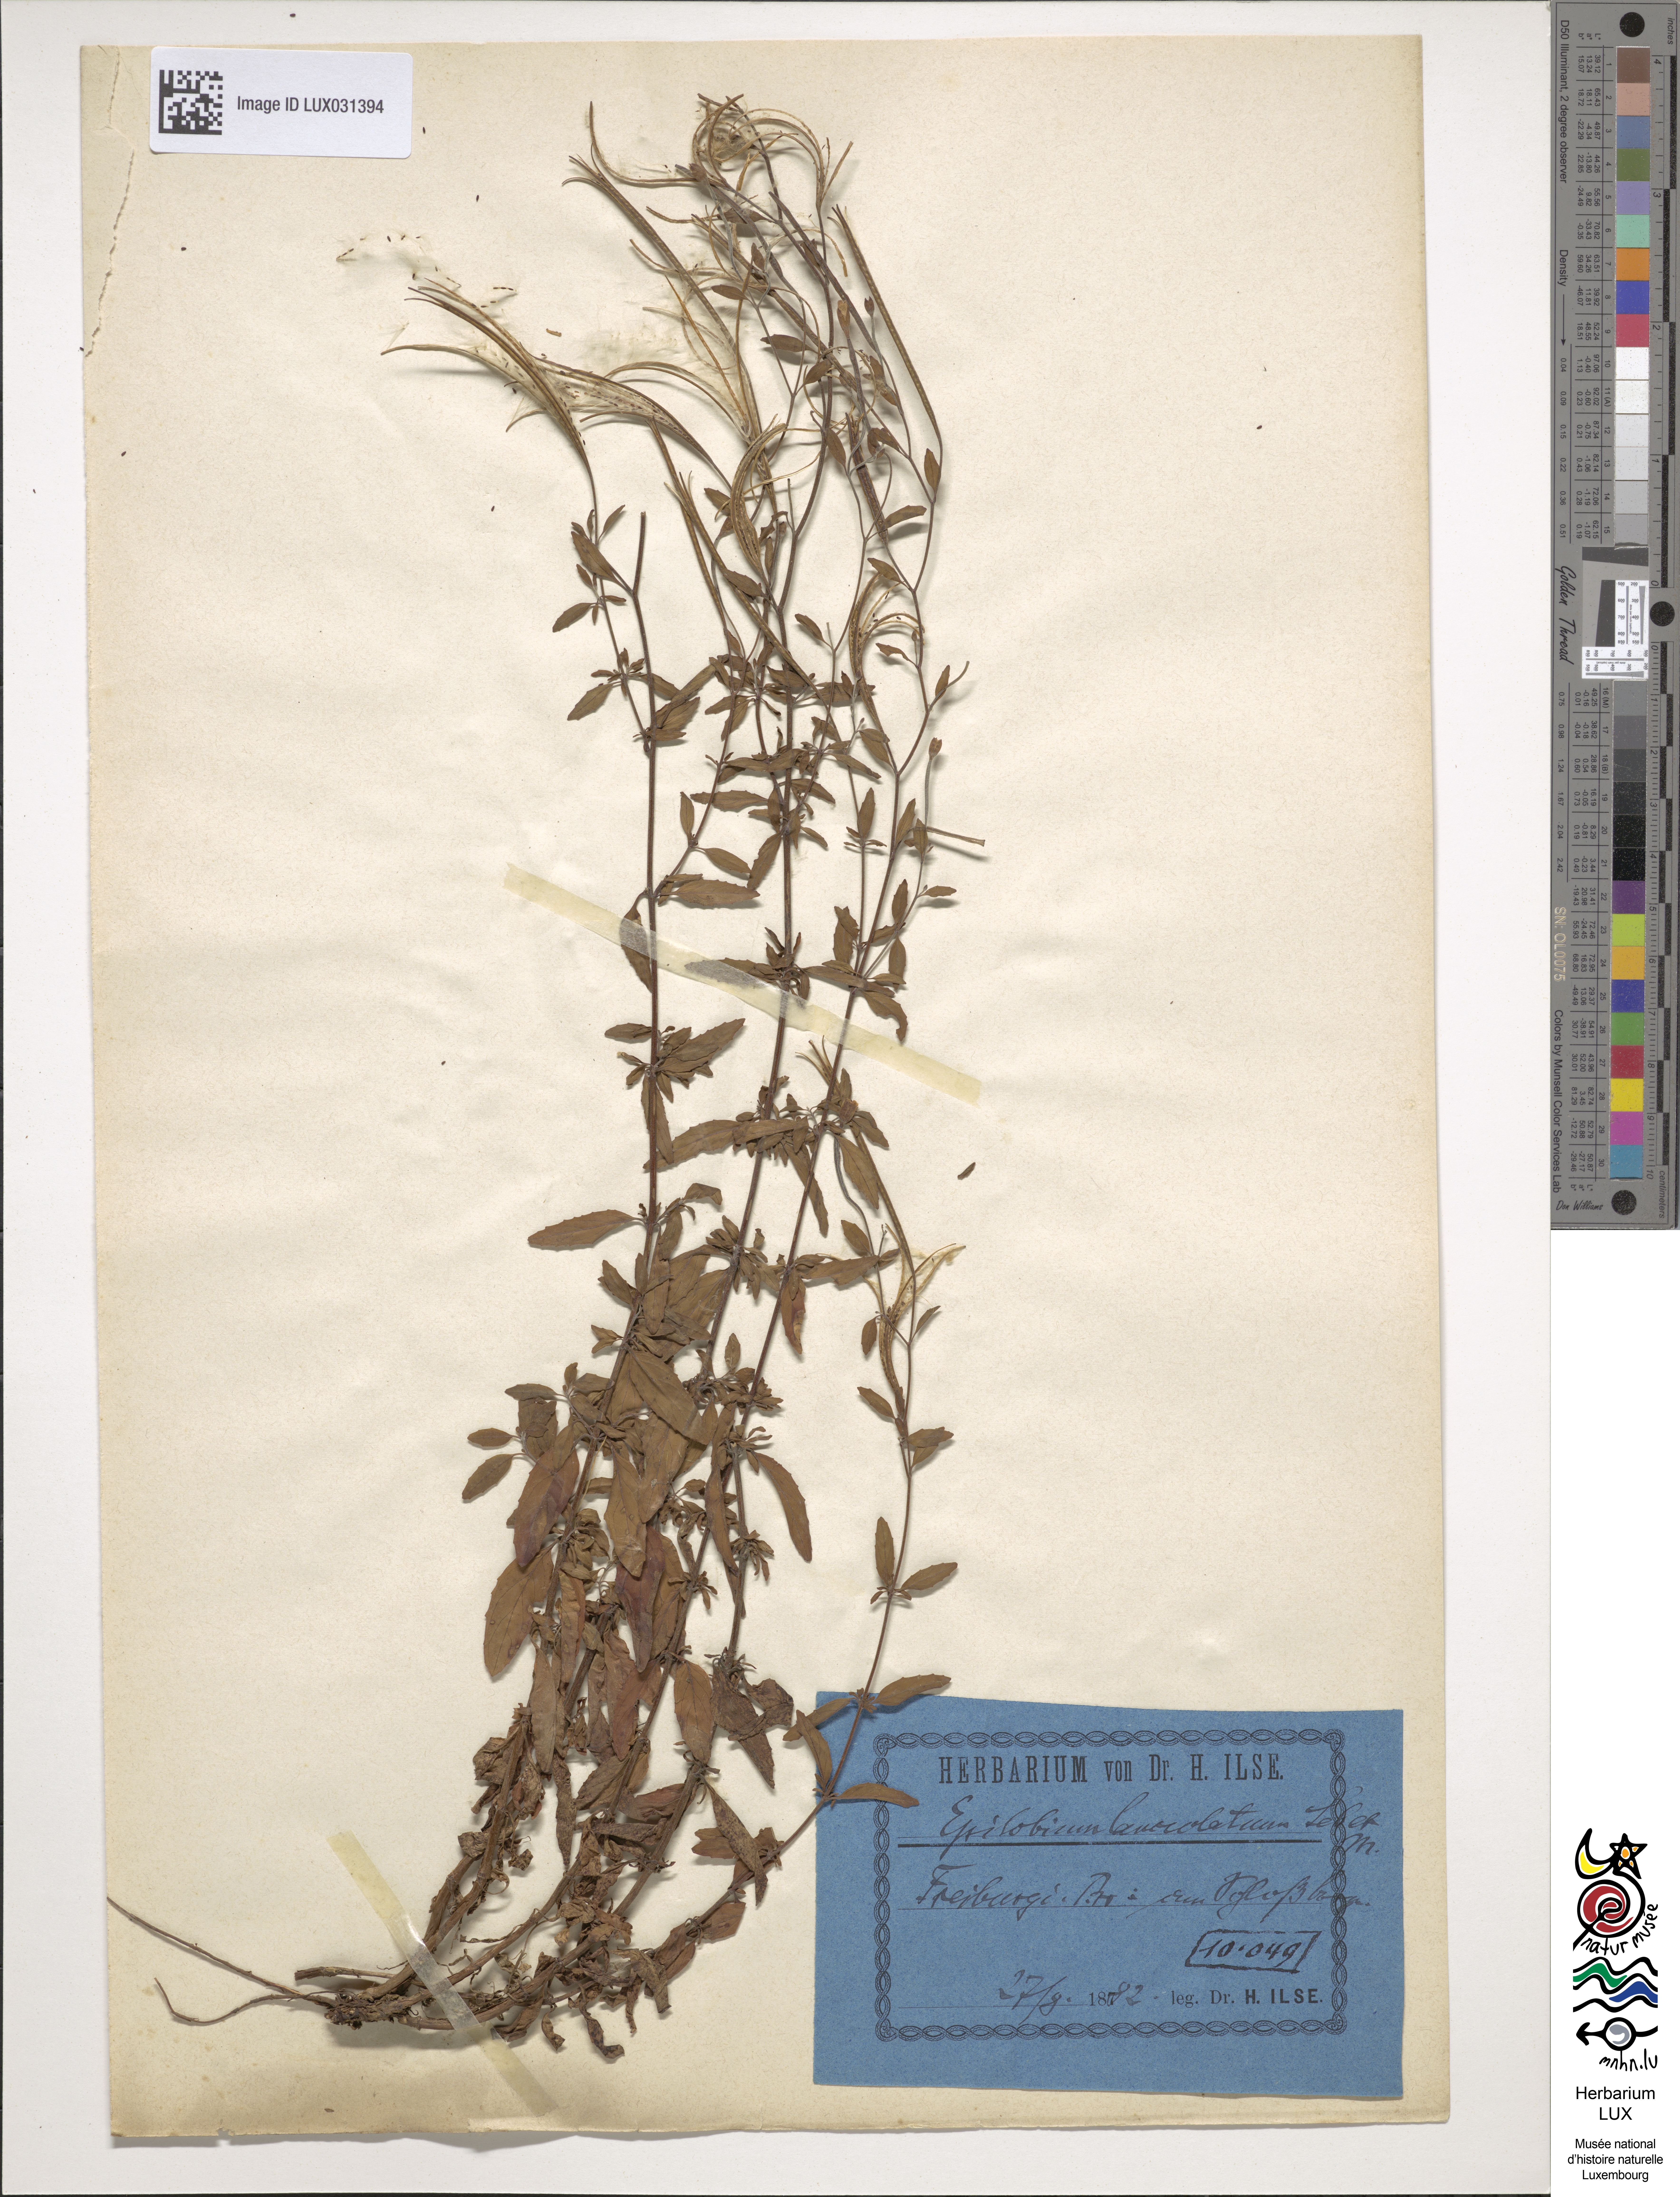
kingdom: Plantae
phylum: Tracheophyta
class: Magnoliopsida
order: Myrtales
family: Onagraceae
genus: Epilobium
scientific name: Epilobium lanceolatum
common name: Spear-leaved willowherb
